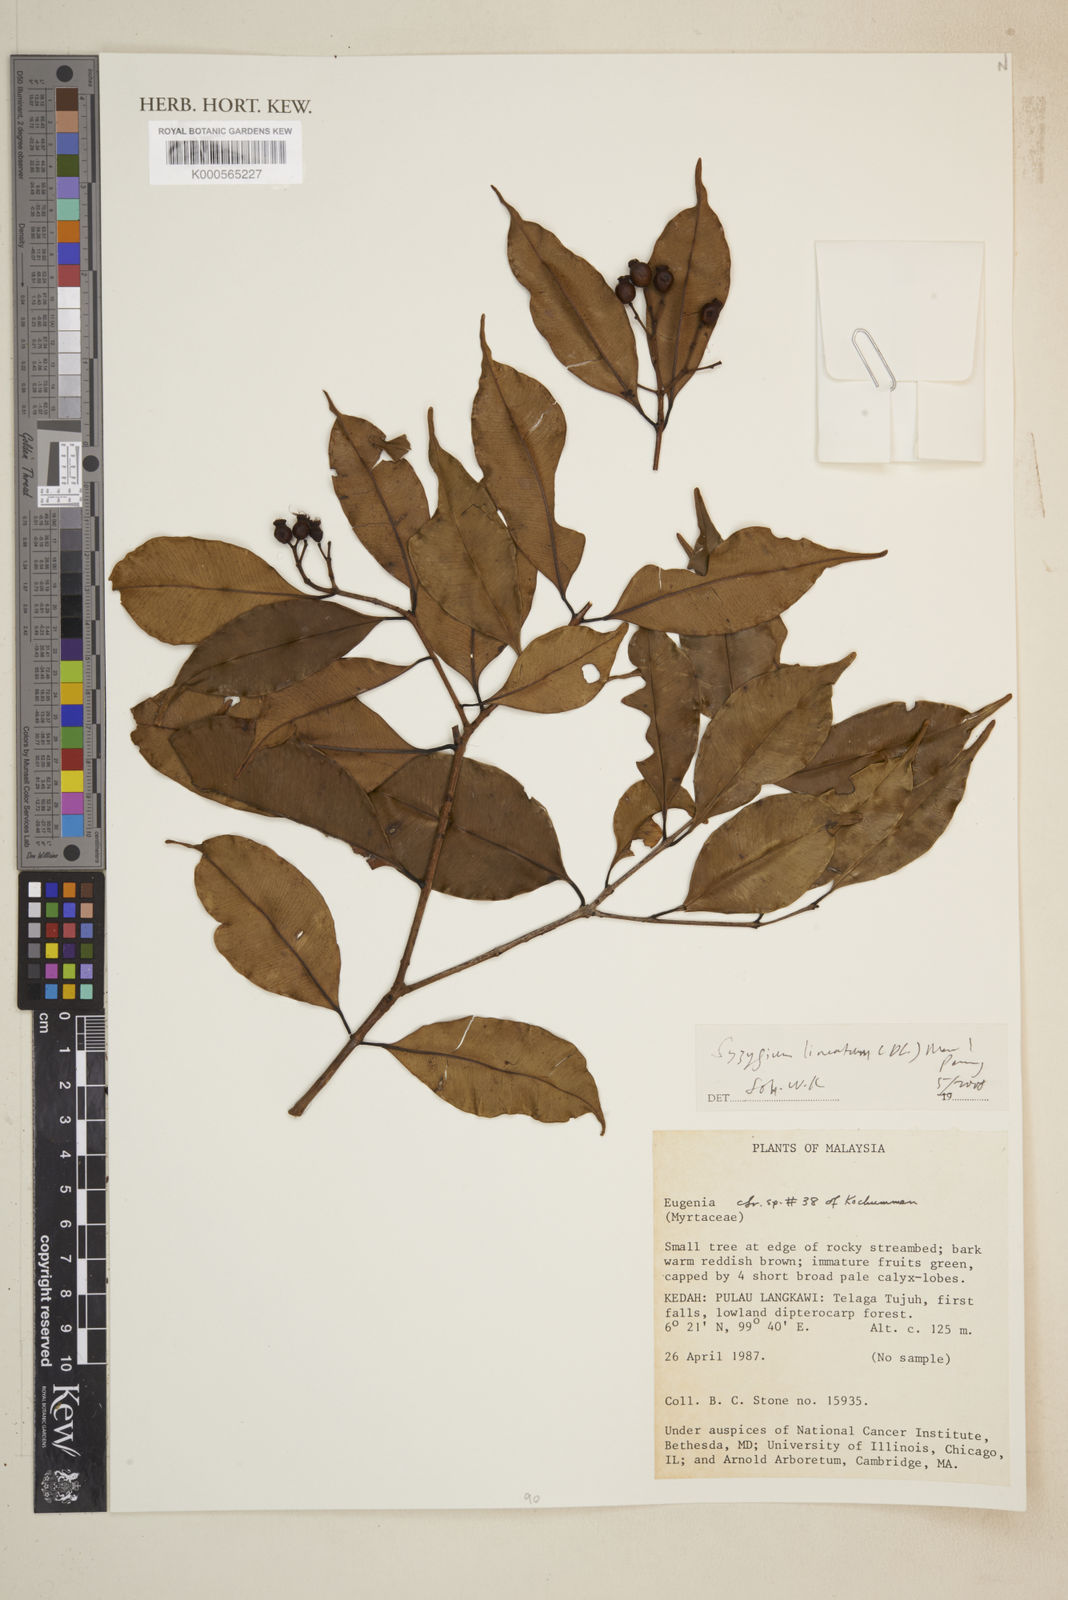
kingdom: Plantae
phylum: Tracheophyta
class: Magnoliopsida
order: Myrtales
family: Myrtaceae
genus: Syzygium
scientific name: Syzygium lineatum
